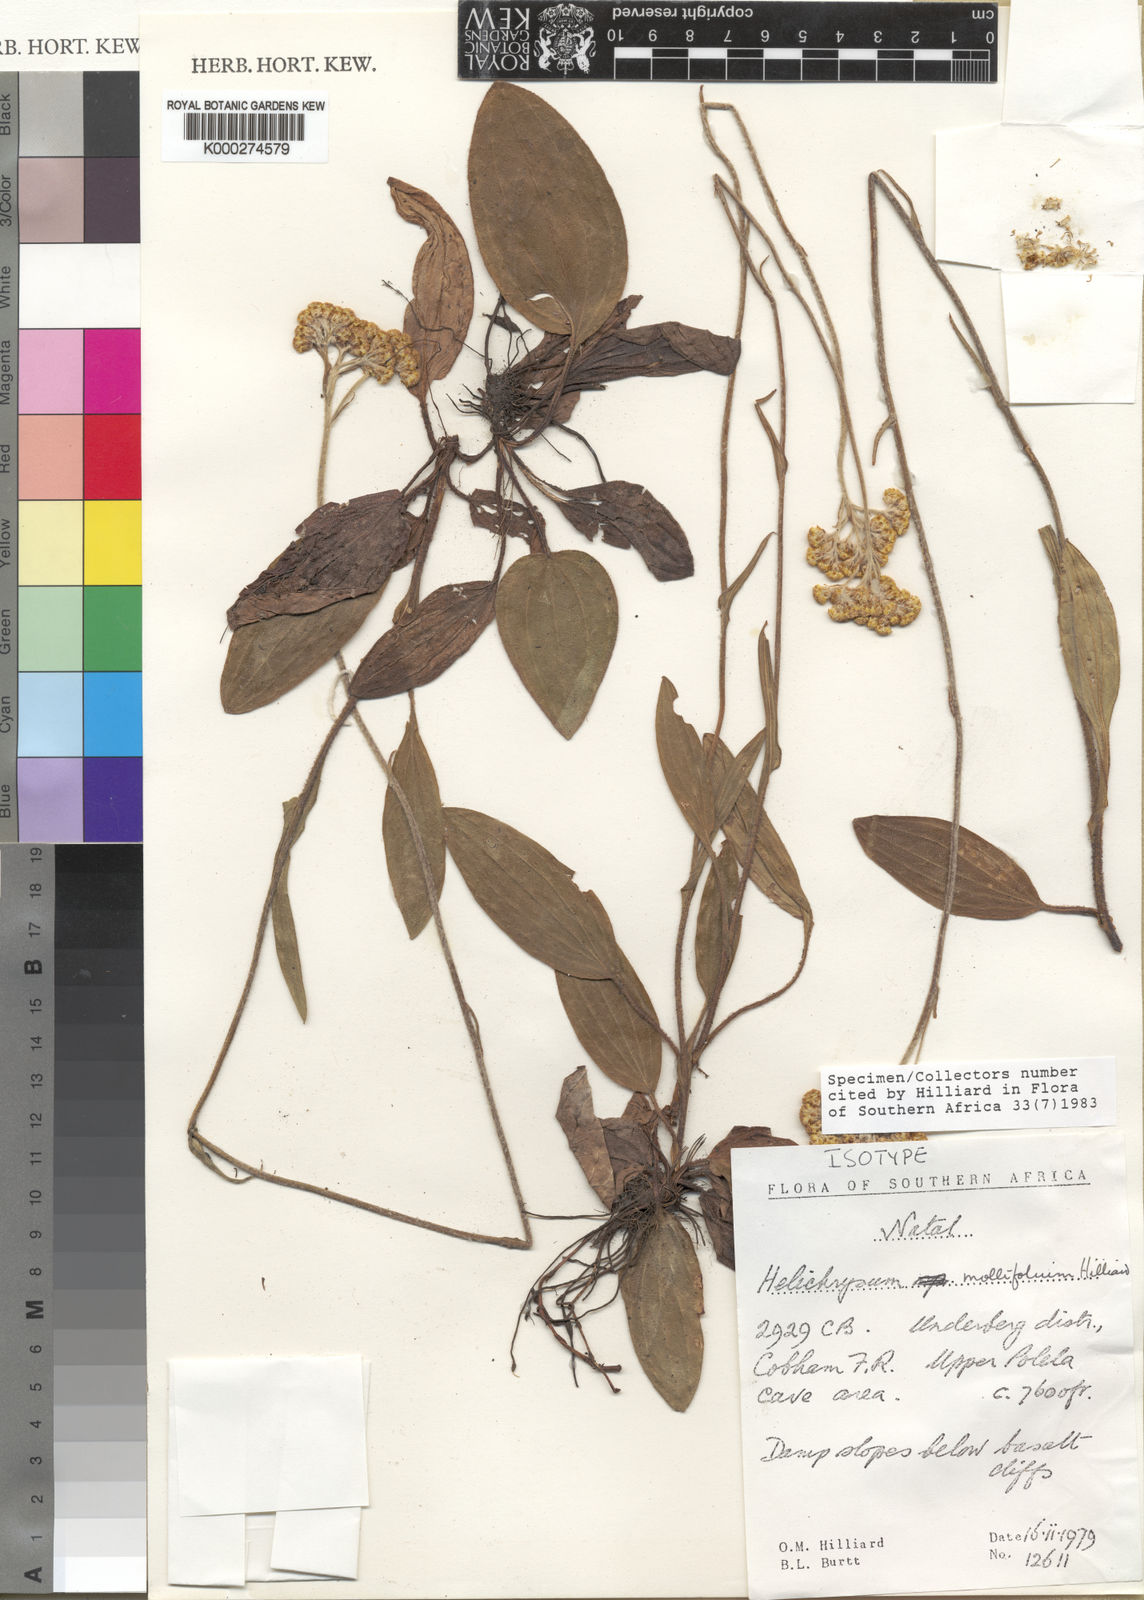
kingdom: Plantae
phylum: Tracheophyta
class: Magnoliopsida
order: Asterales
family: Asteraceae
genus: Helichrysum
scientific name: Helichrysum mollifolium
